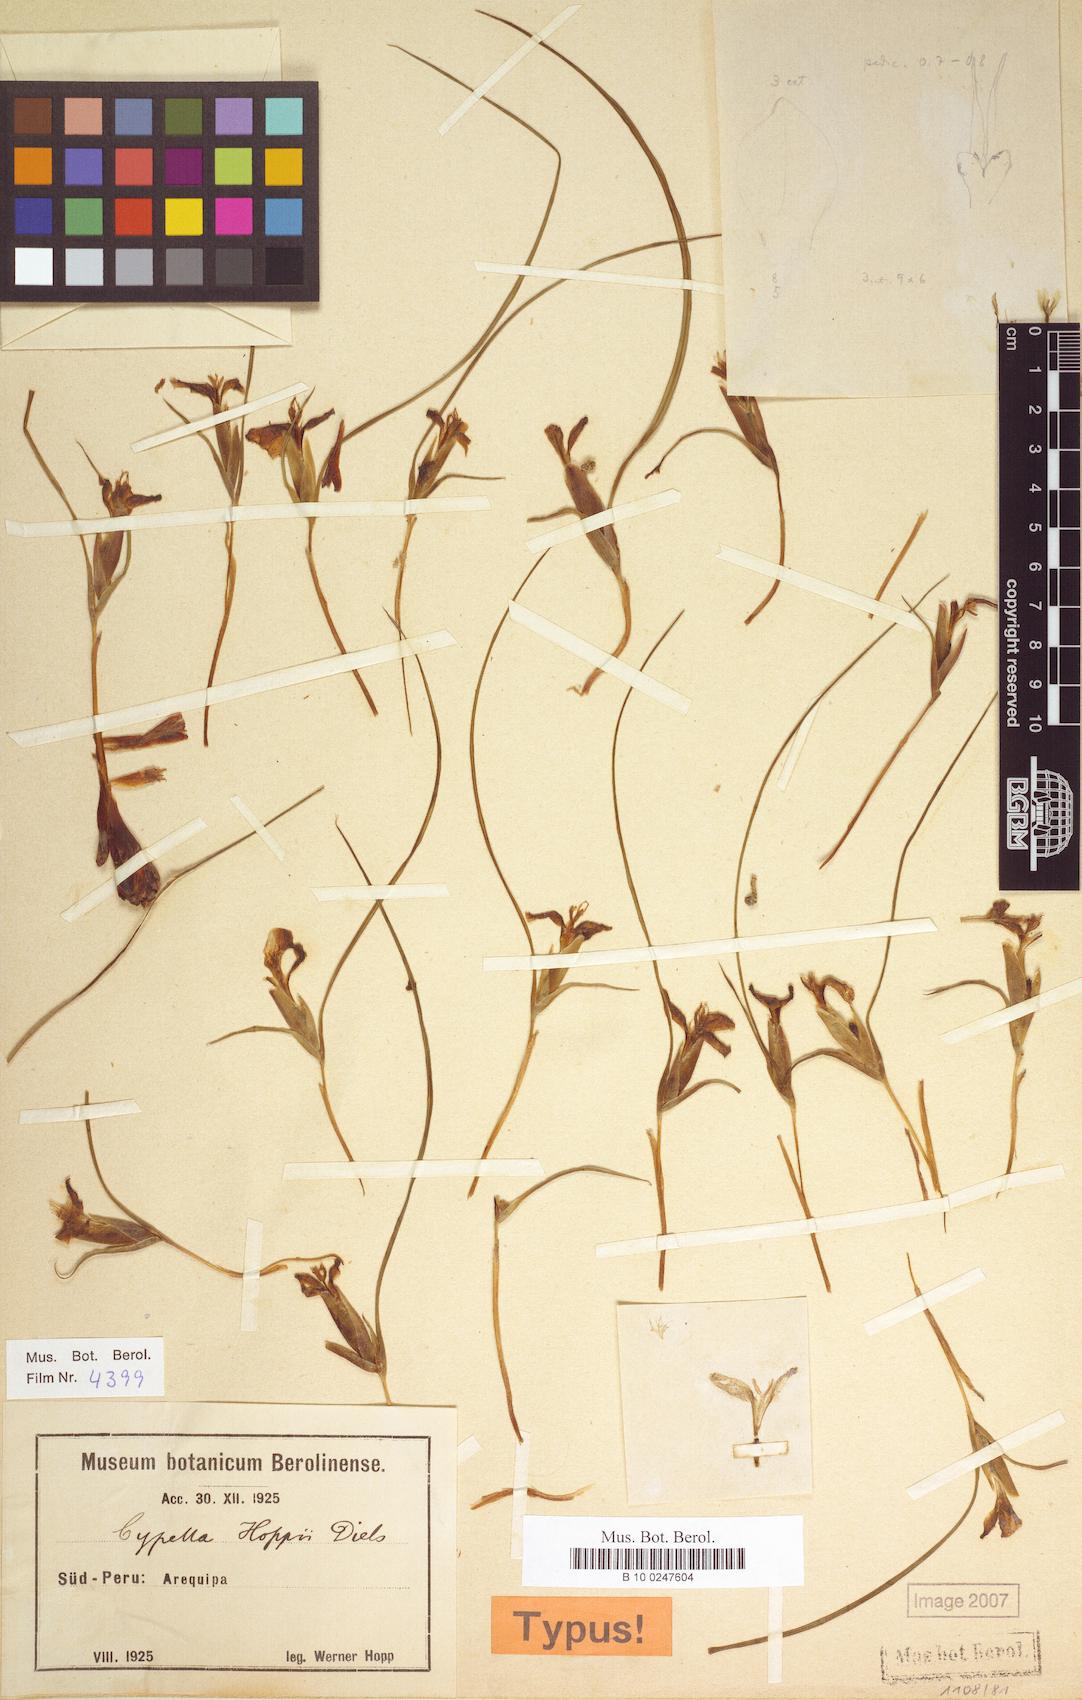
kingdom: Plantae
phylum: Tracheophyta
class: Liliopsida
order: Asparagales
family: Iridaceae
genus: Mastigostyla
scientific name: Mastigostyla hoppii
